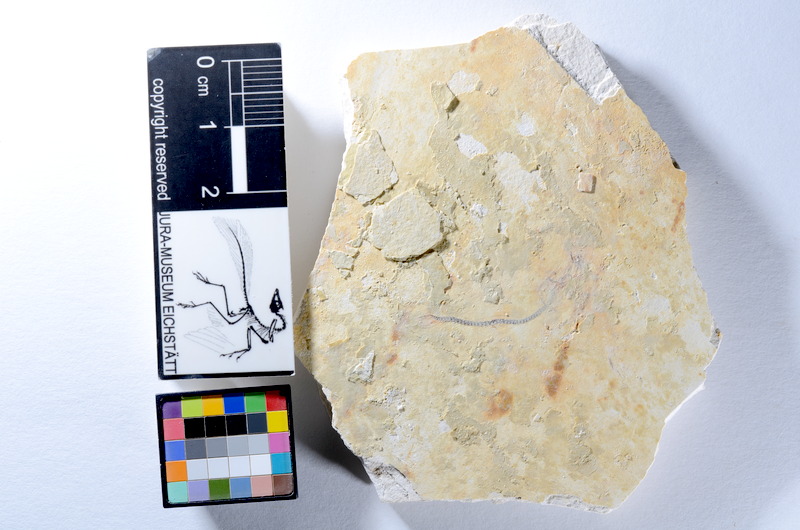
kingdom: Animalia
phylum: Chordata
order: Salmoniformes
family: Orthogonikleithridae
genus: Orthogonikleithrus
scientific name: Orthogonikleithrus hoelli
